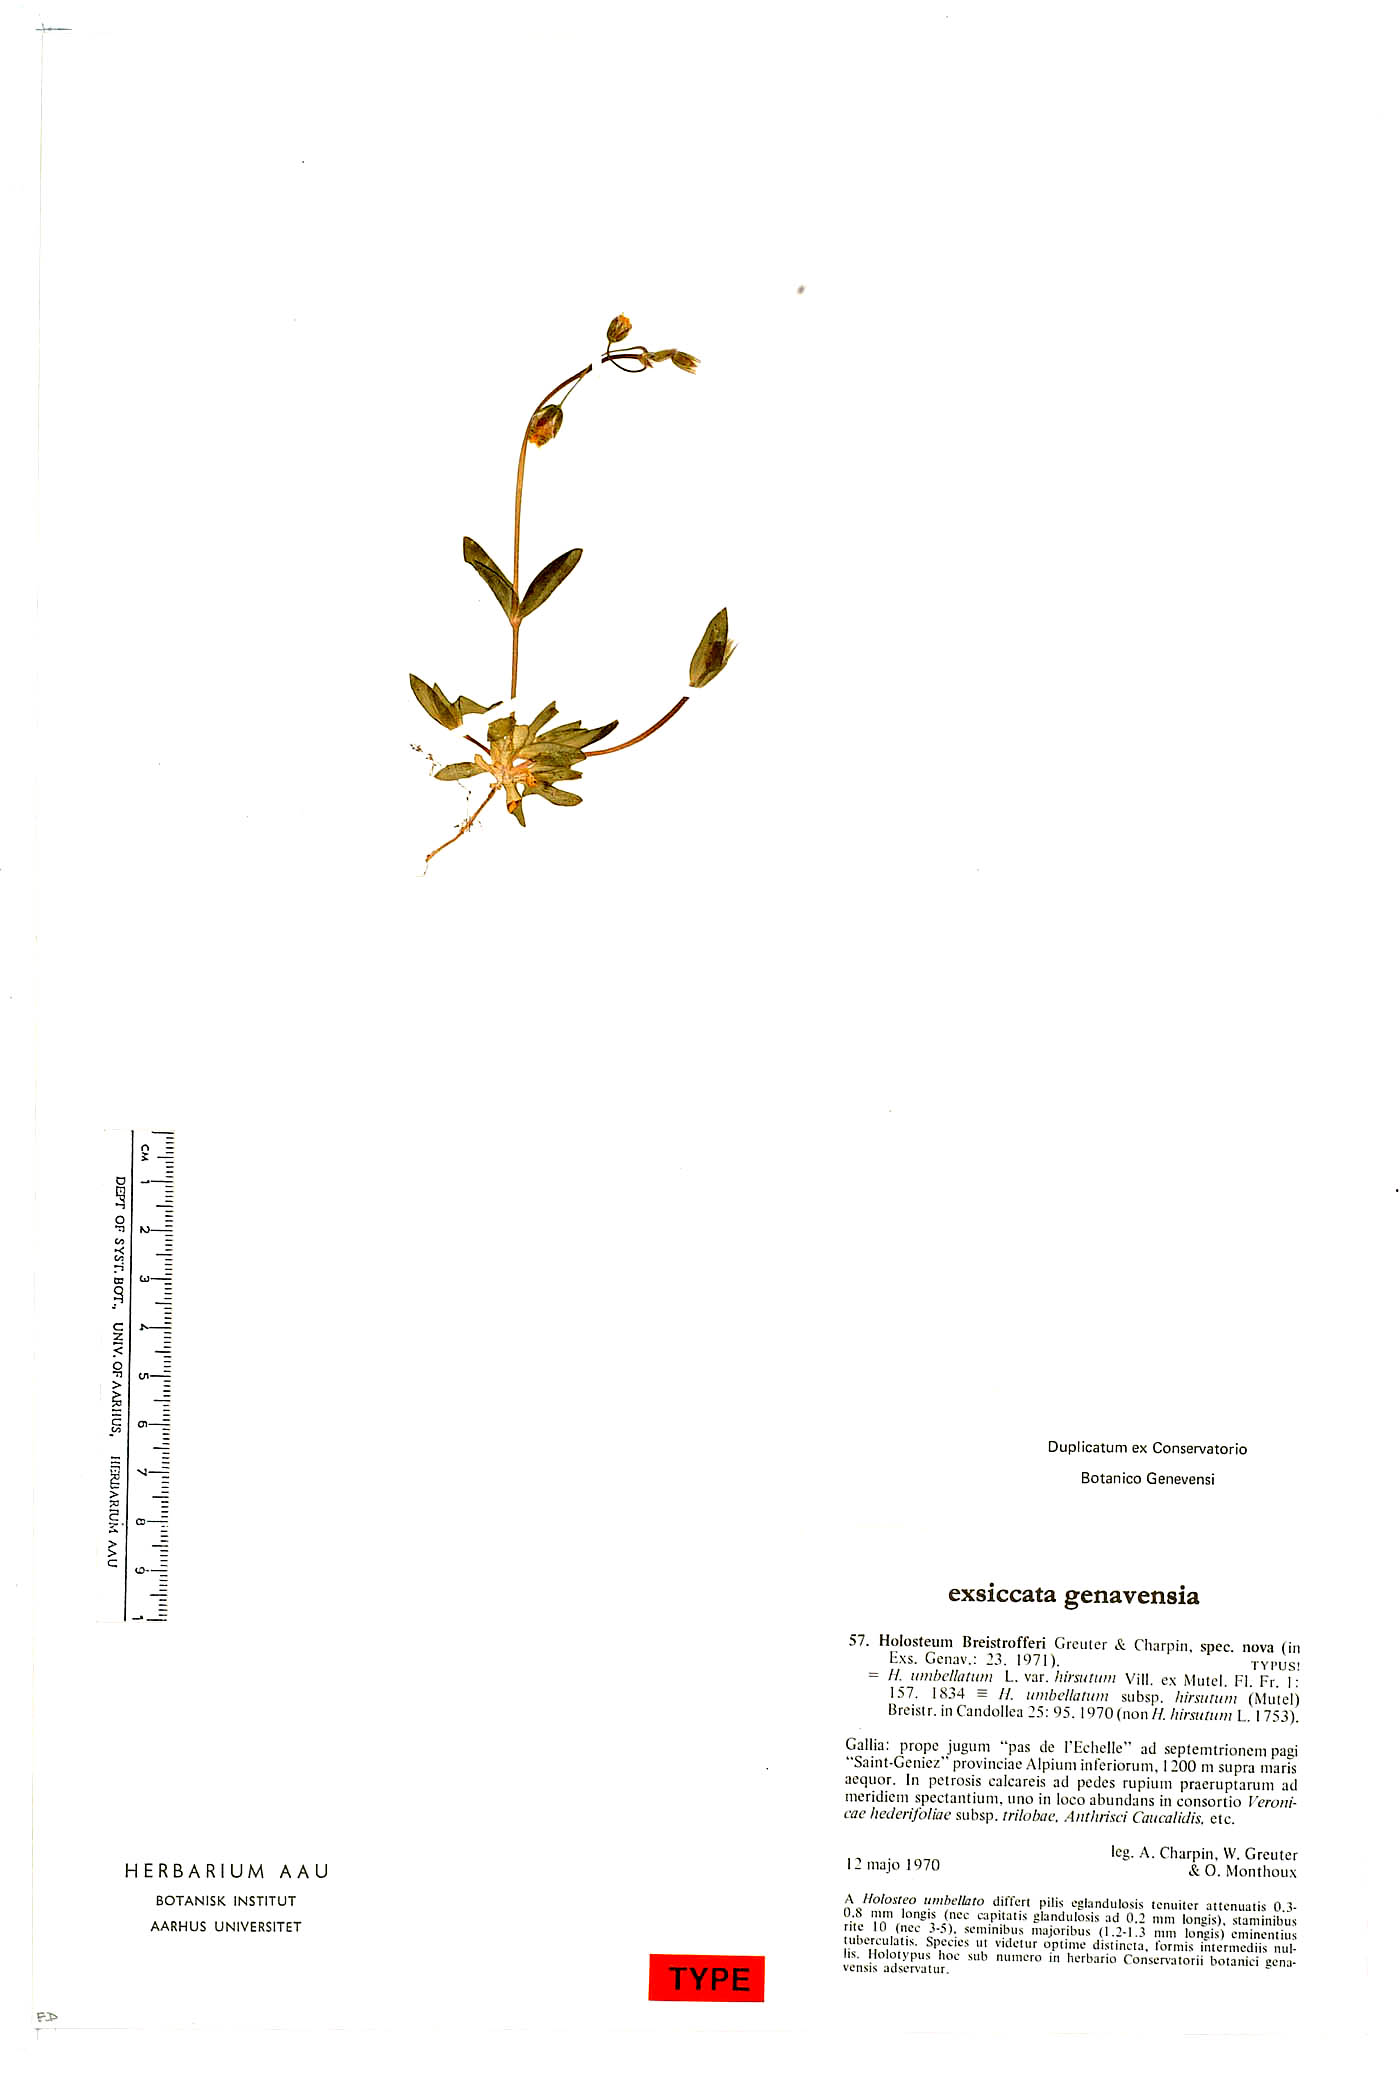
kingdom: Plantae
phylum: Tracheophyta
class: Magnoliopsida
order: Caryophyllales
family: Caryophyllaceae
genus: Holosteum
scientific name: Holosteum umbellatum
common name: Jagged chickweed
